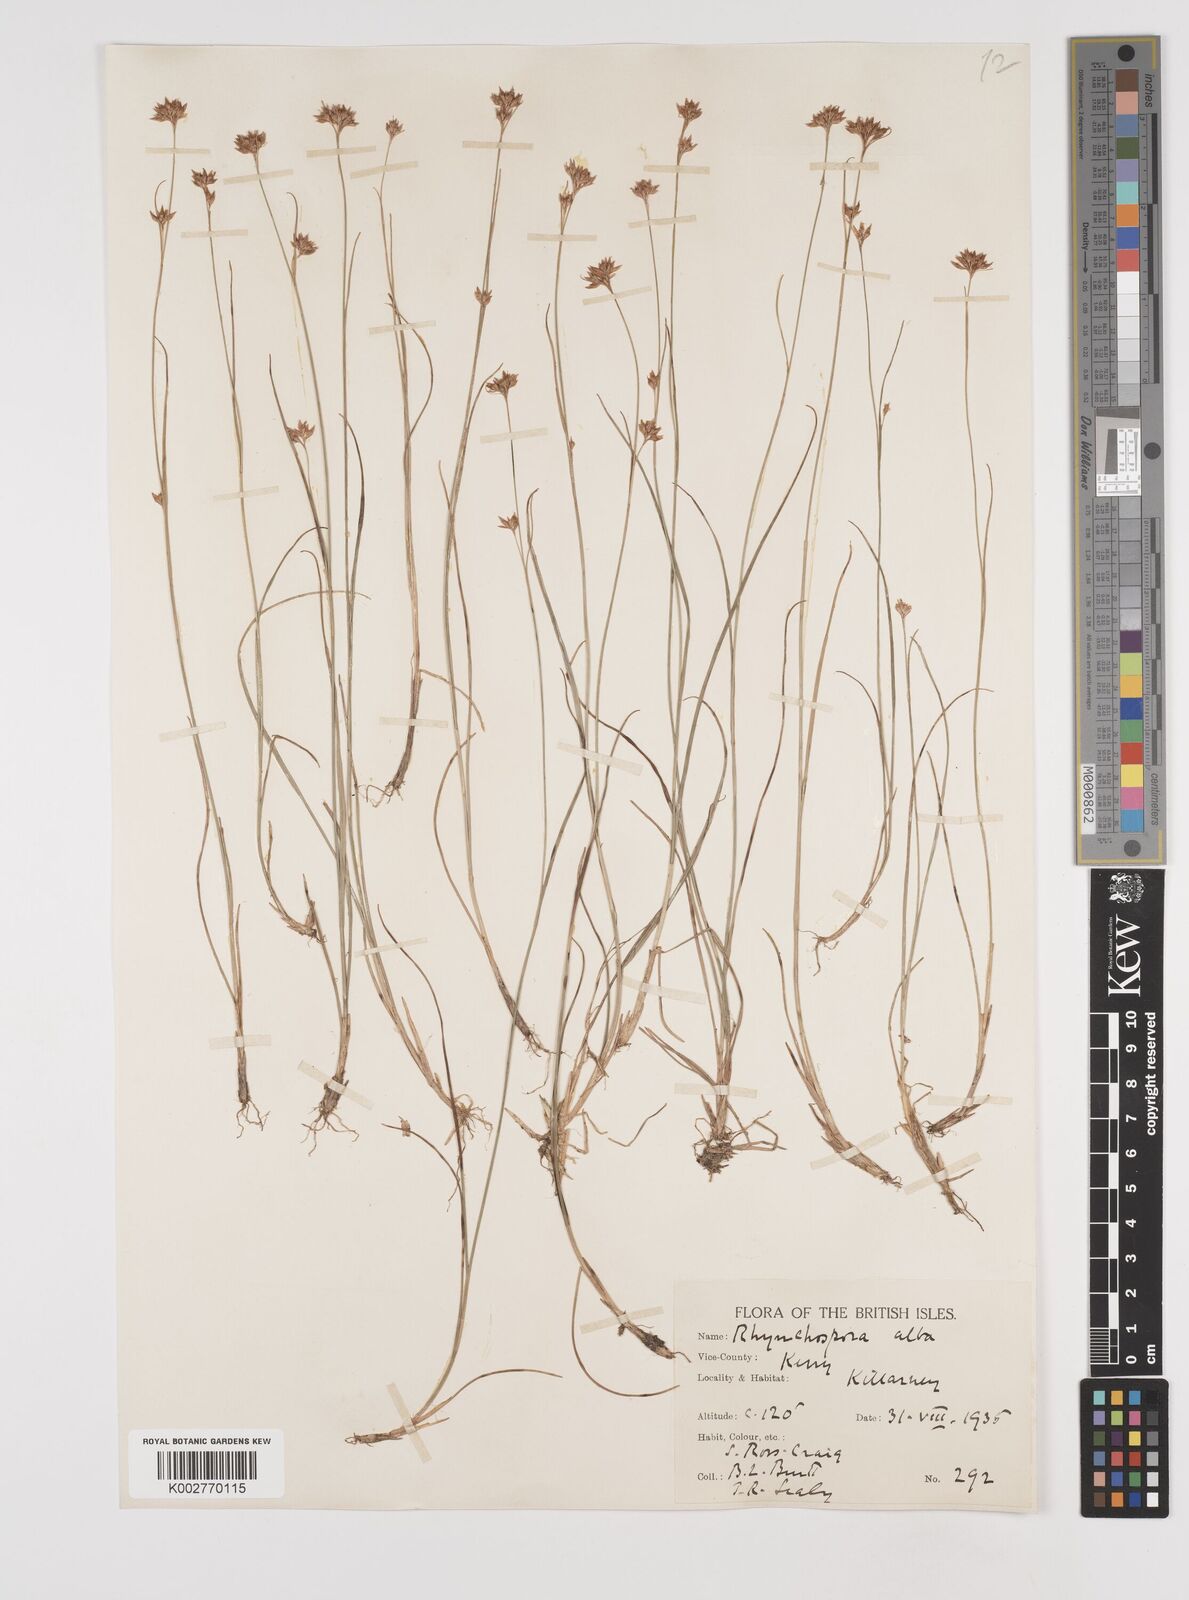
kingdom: Plantae
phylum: Tracheophyta
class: Liliopsida
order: Poales
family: Cyperaceae
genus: Rhynchospora
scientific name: Rhynchospora alba
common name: White beak-sedge
